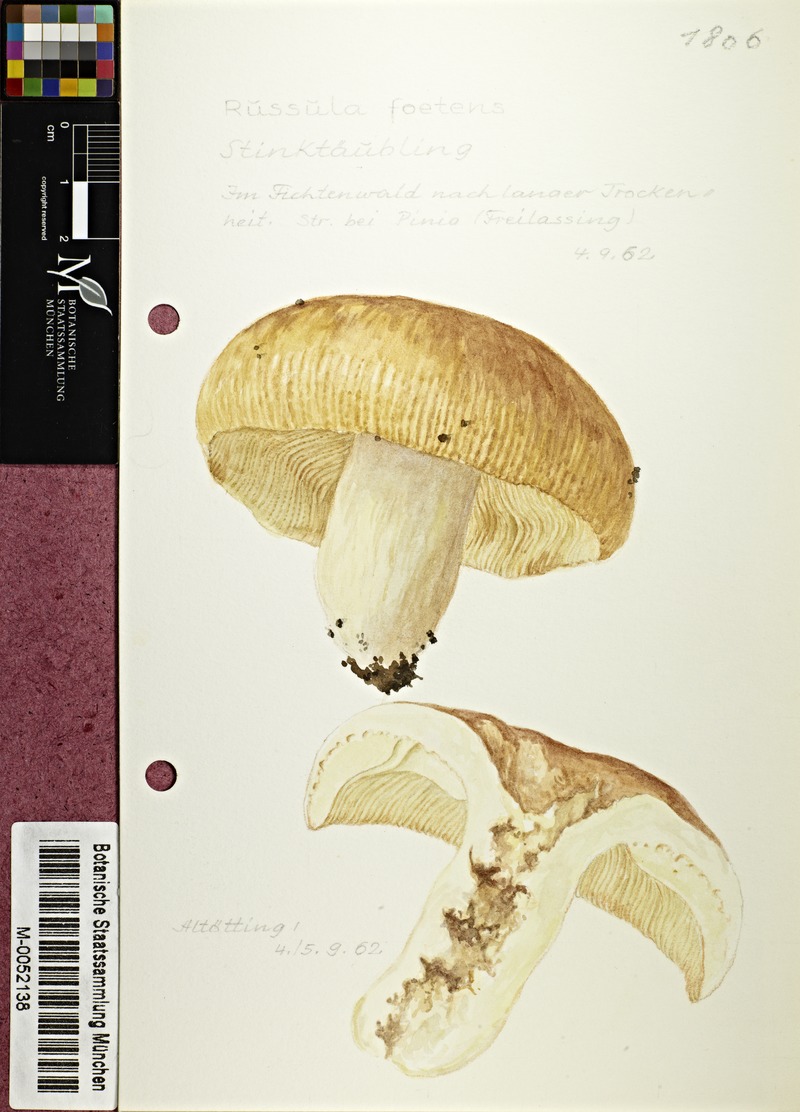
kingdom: Fungi
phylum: Basidiomycota
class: Agaricomycetes
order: Russulales
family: Russulaceae
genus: Russula
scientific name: Russula foetens
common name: Foetid russula
